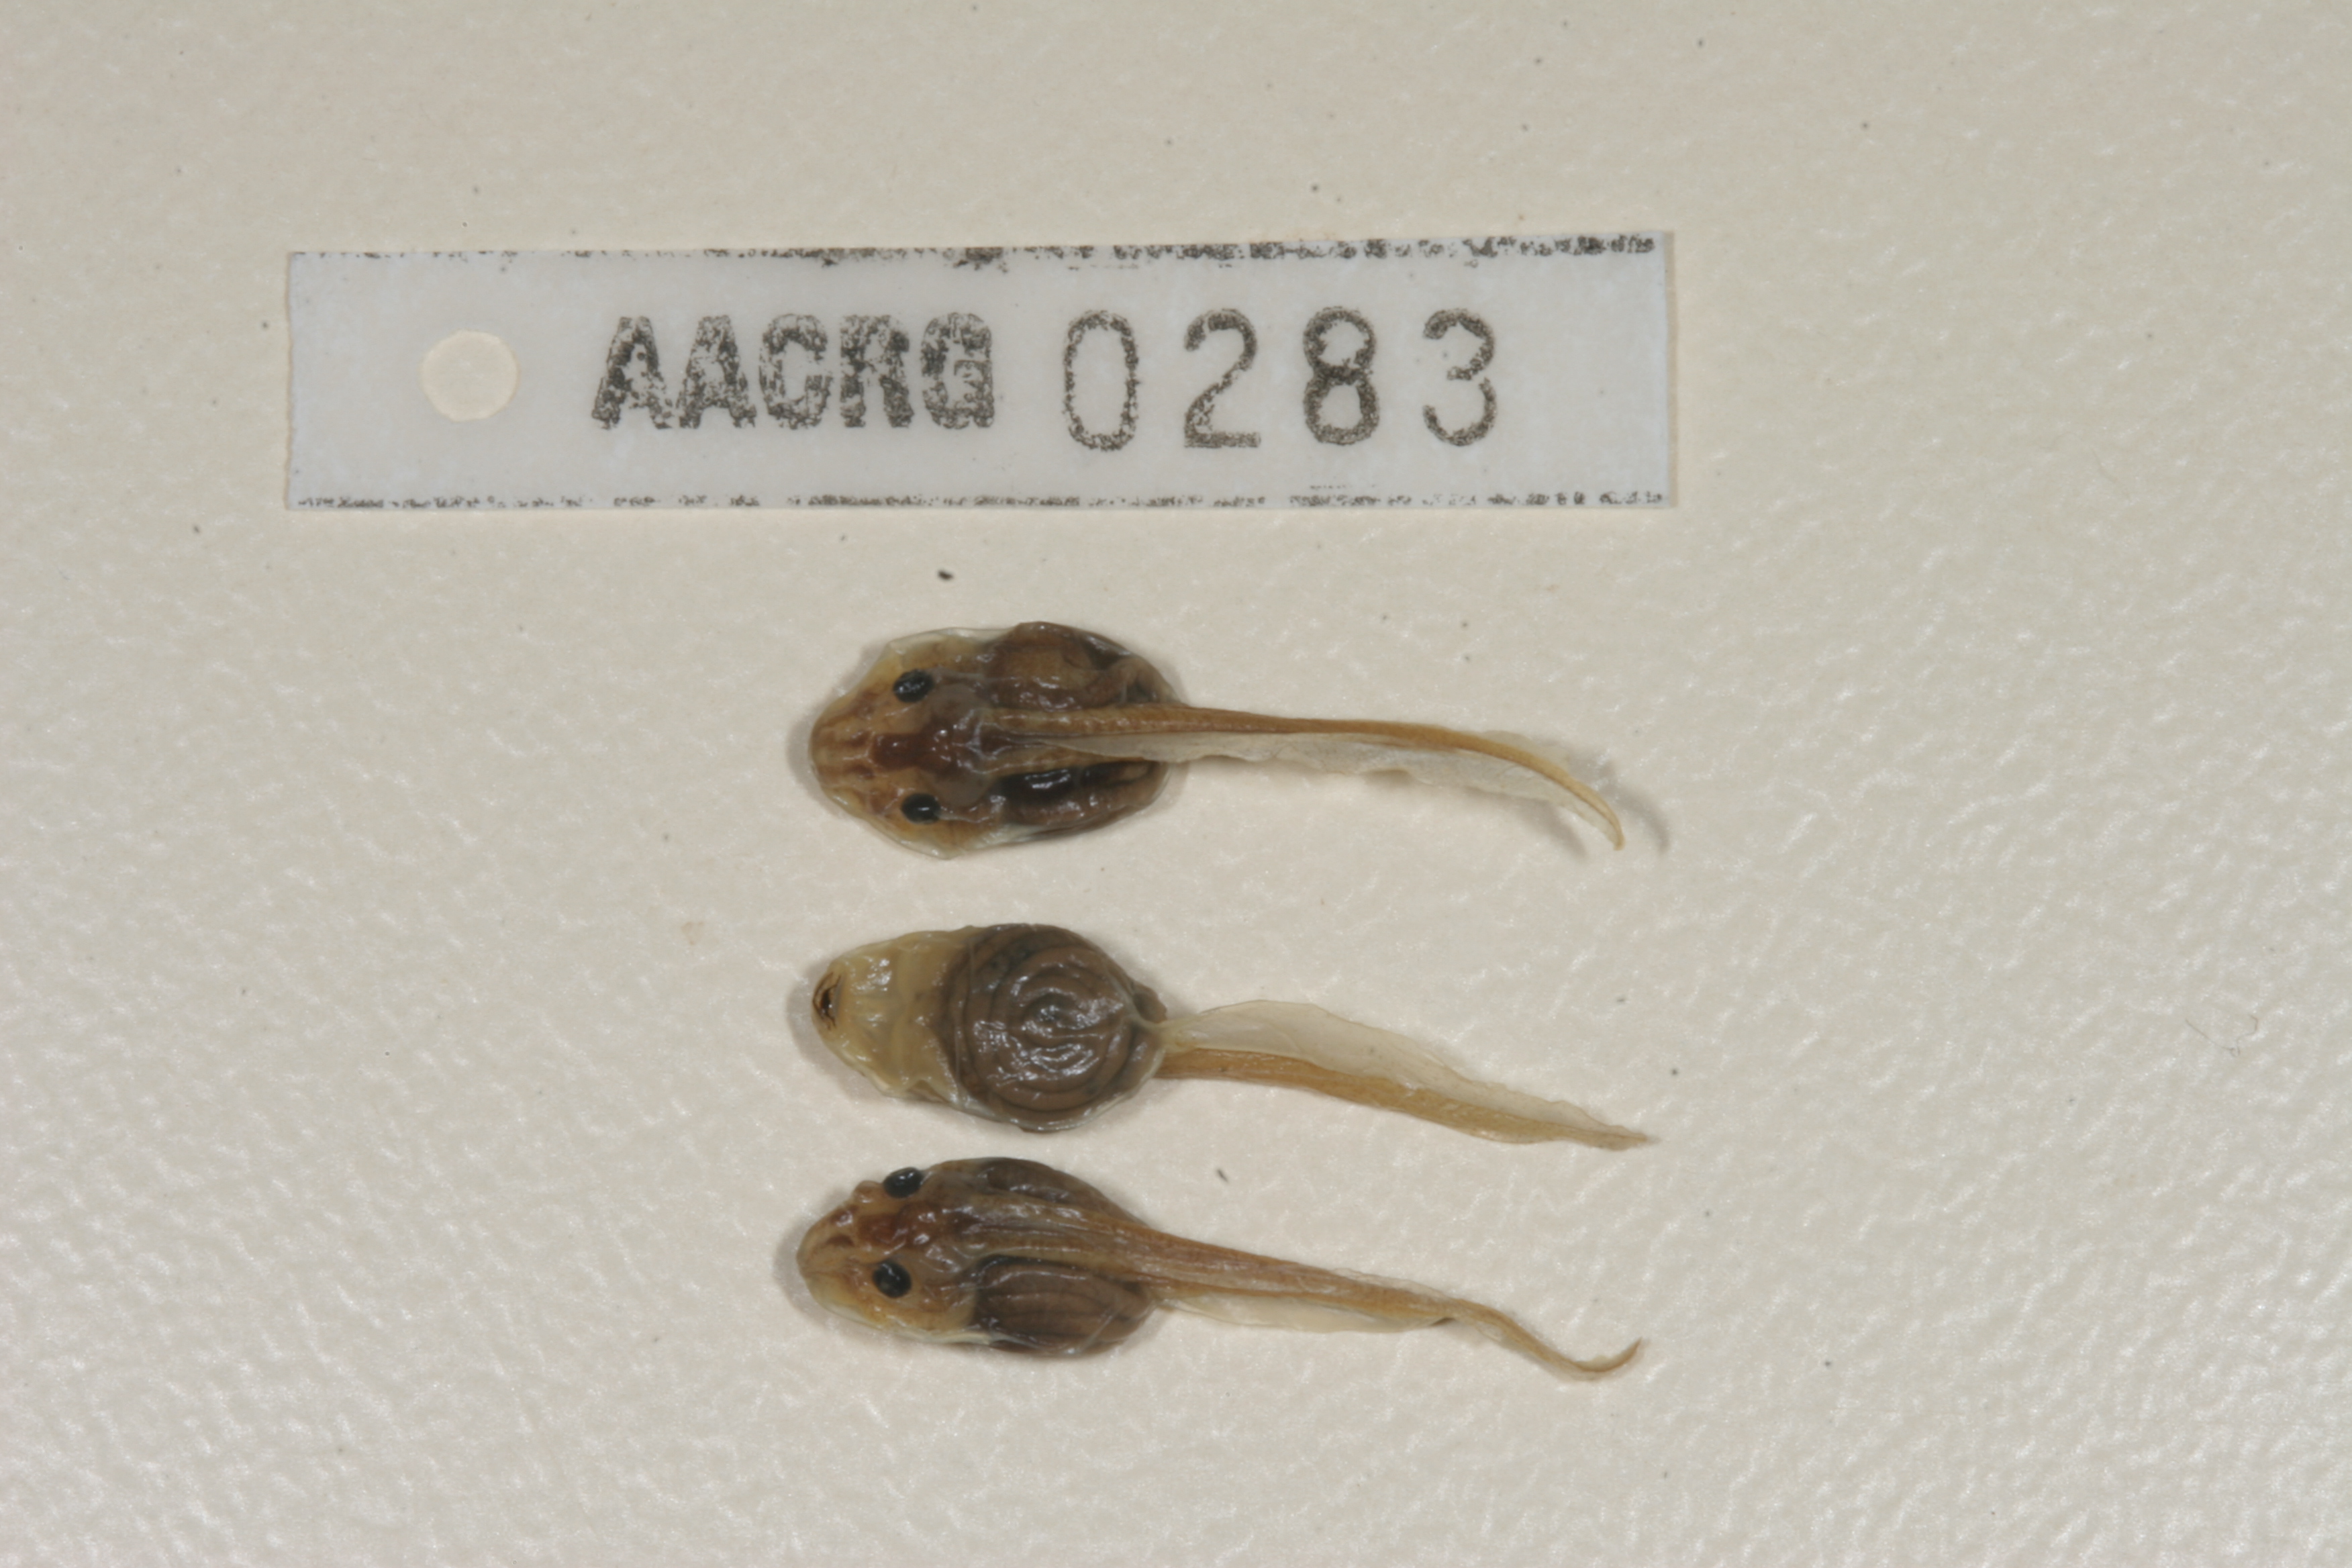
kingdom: Animalia
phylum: Chordata
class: Amphibia
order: Anura
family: Pyxicephalidae
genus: Cacosternum
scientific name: Cacosternum boettgeri
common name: Boettger's frog
